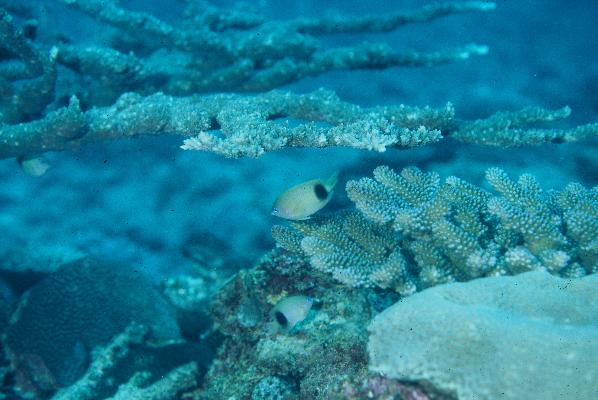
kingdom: Animalia
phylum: Chordata
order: Perciformes
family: Pomacentridae
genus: Plectroglyphidodon
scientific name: Plectroglyphidodon johnstonianus
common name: Johnston damsel
